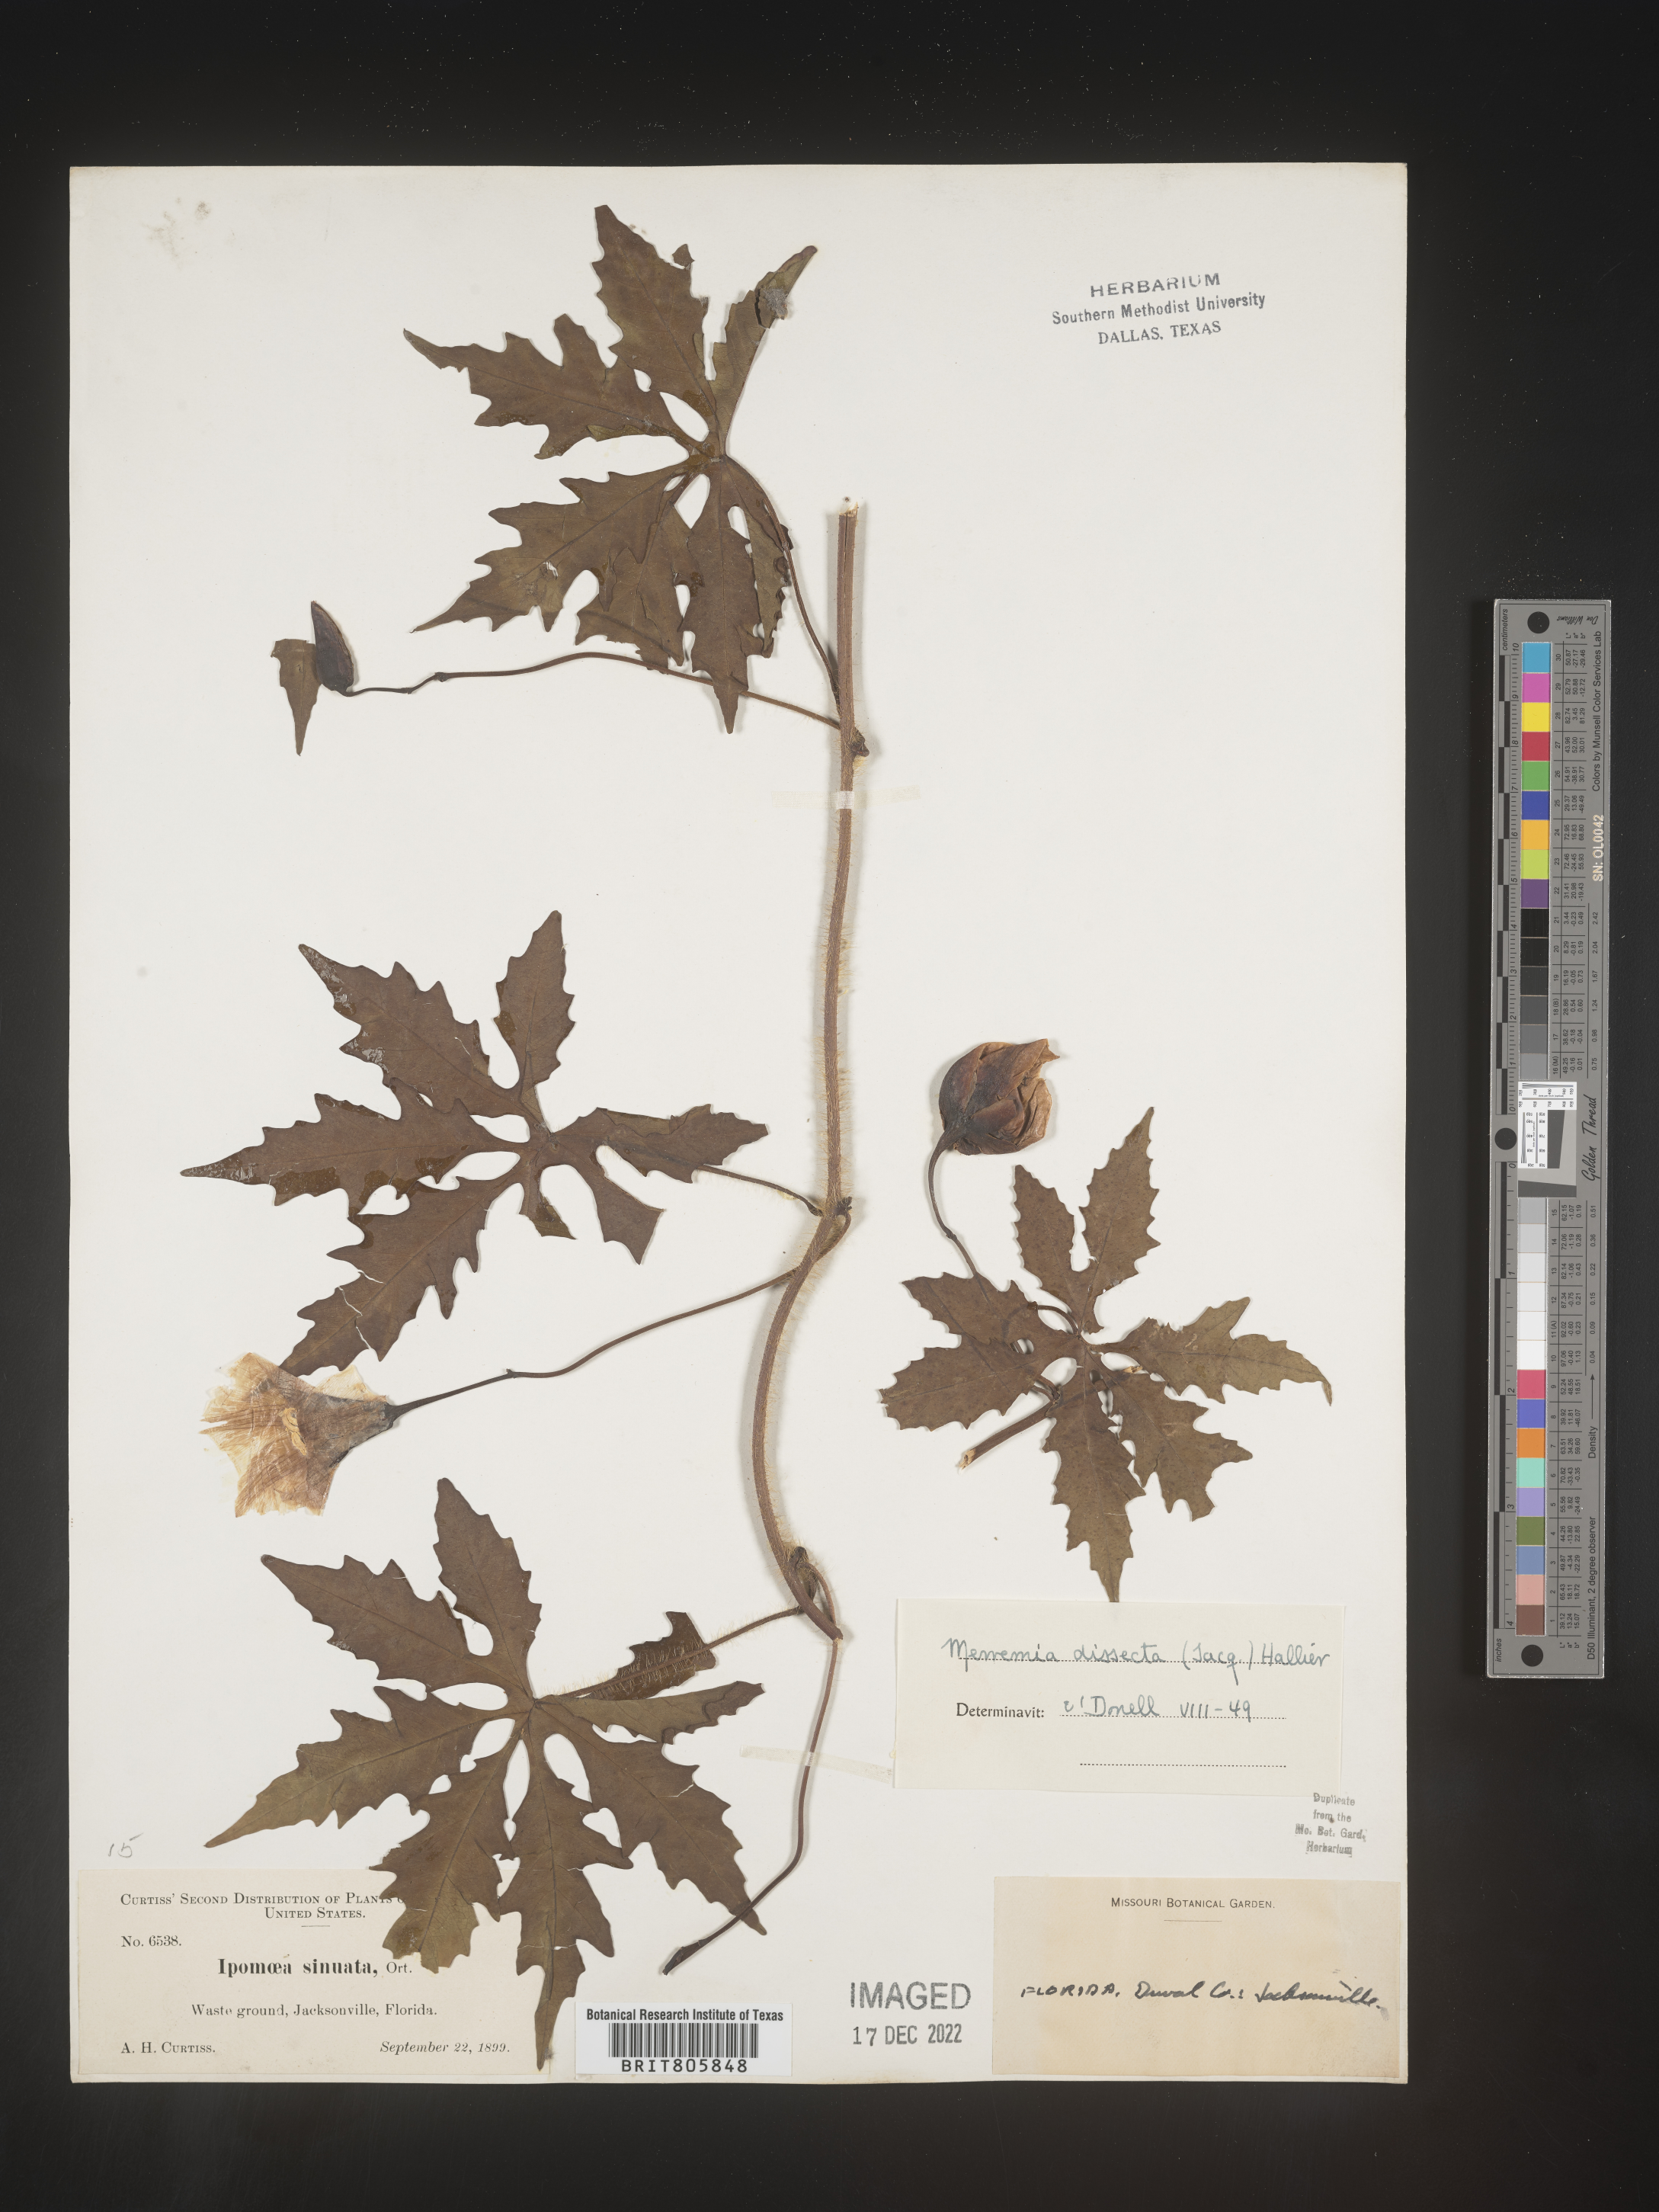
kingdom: Plantae
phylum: Tracheophyta
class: Magnoliopsida
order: Solanales
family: Convolvulaceae
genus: Merremia
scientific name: Merremia
